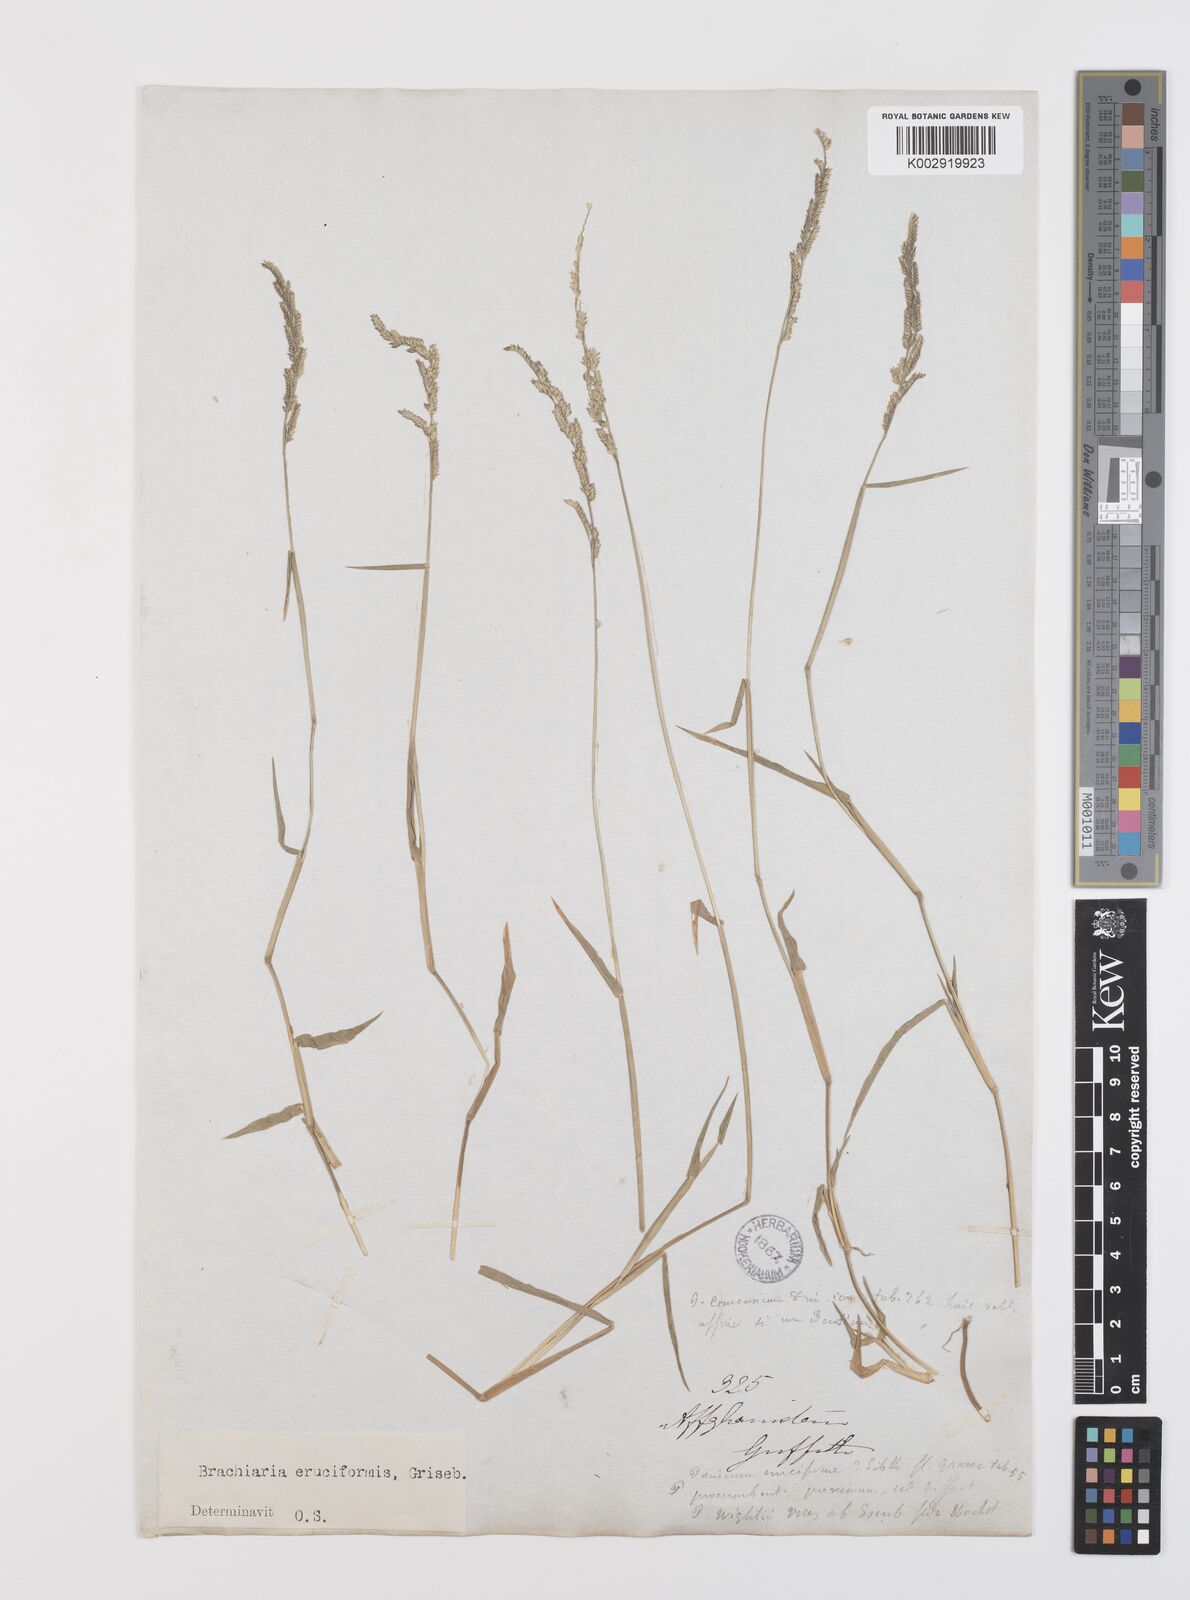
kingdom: Plantae
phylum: Tracheophyta
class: Liliopsida
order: Poales
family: Poaceae
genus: Moorochloa
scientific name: Moorochloa eruciformis
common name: Sweet signalgrass
